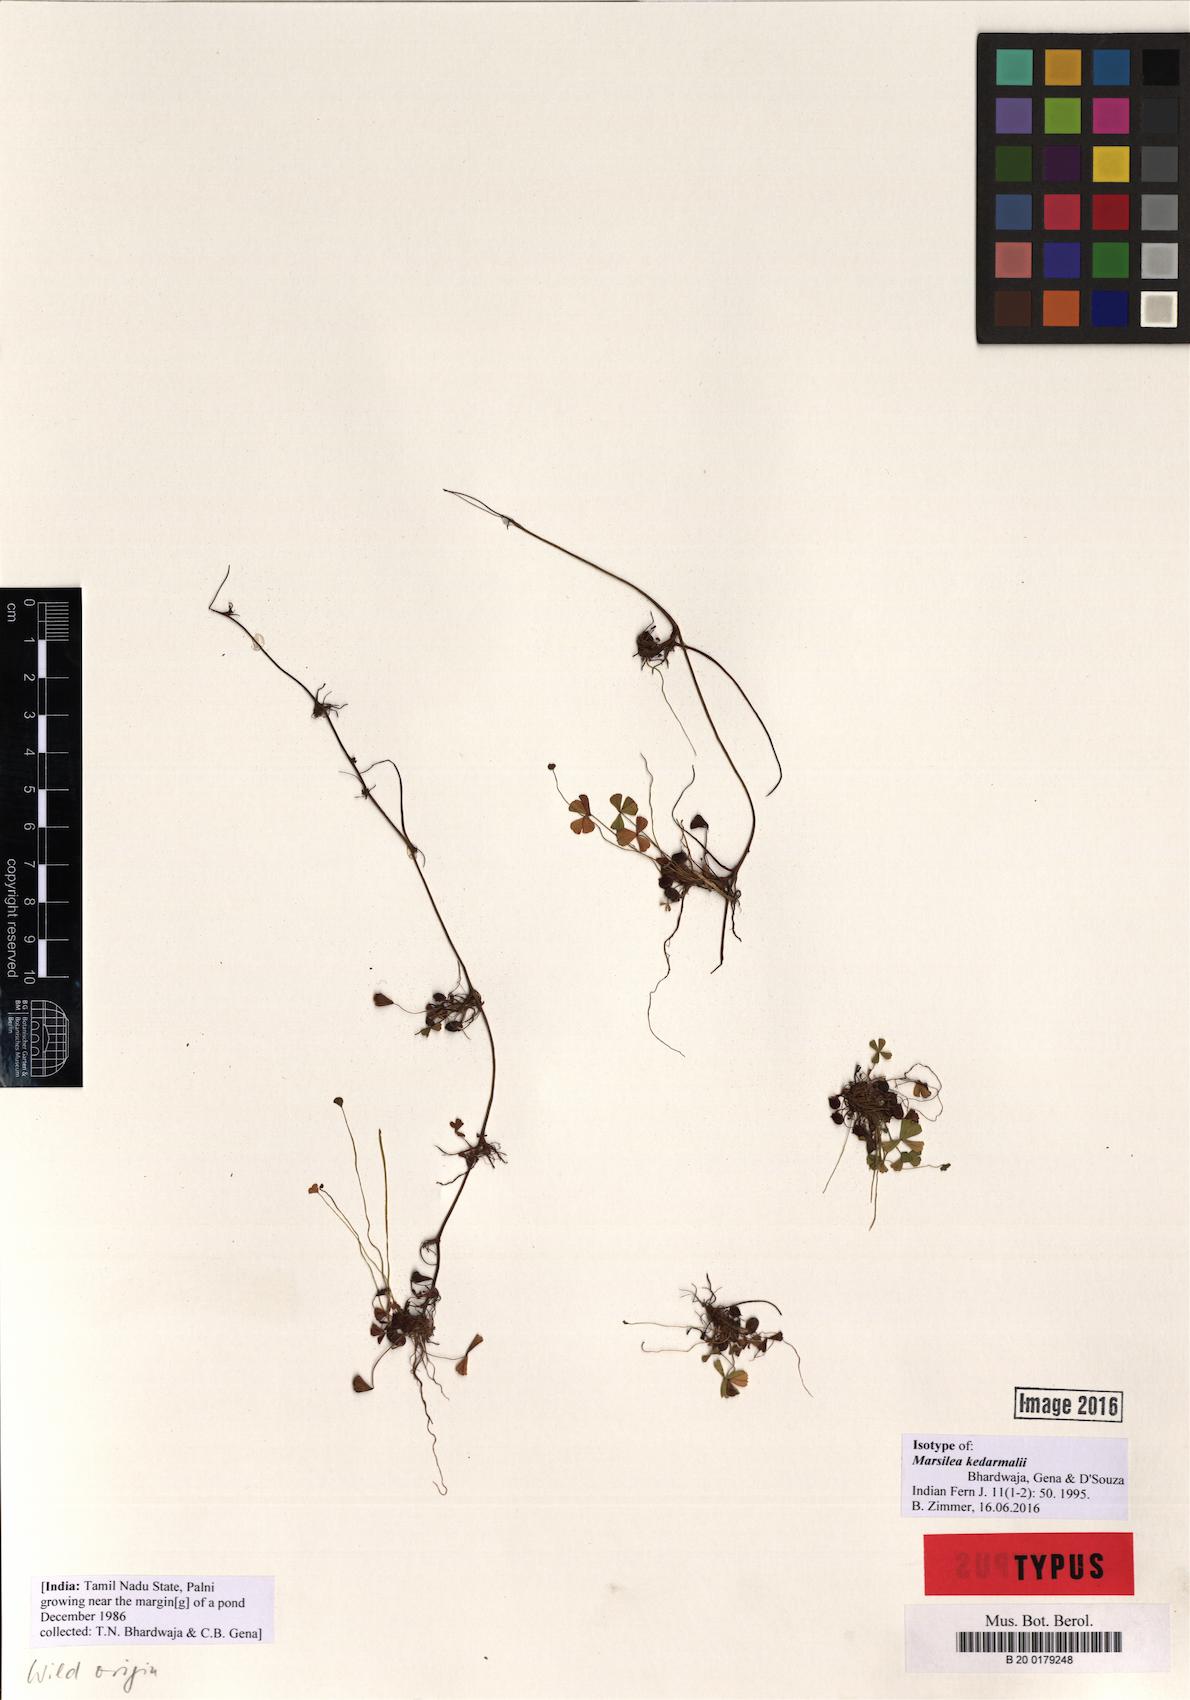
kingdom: Plantae
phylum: Tracheophyta
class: Polypodiopsida
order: Salviniales
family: Marsileaceae
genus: Marsilea
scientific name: Marsilea minuta
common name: Dwarf waterclover
